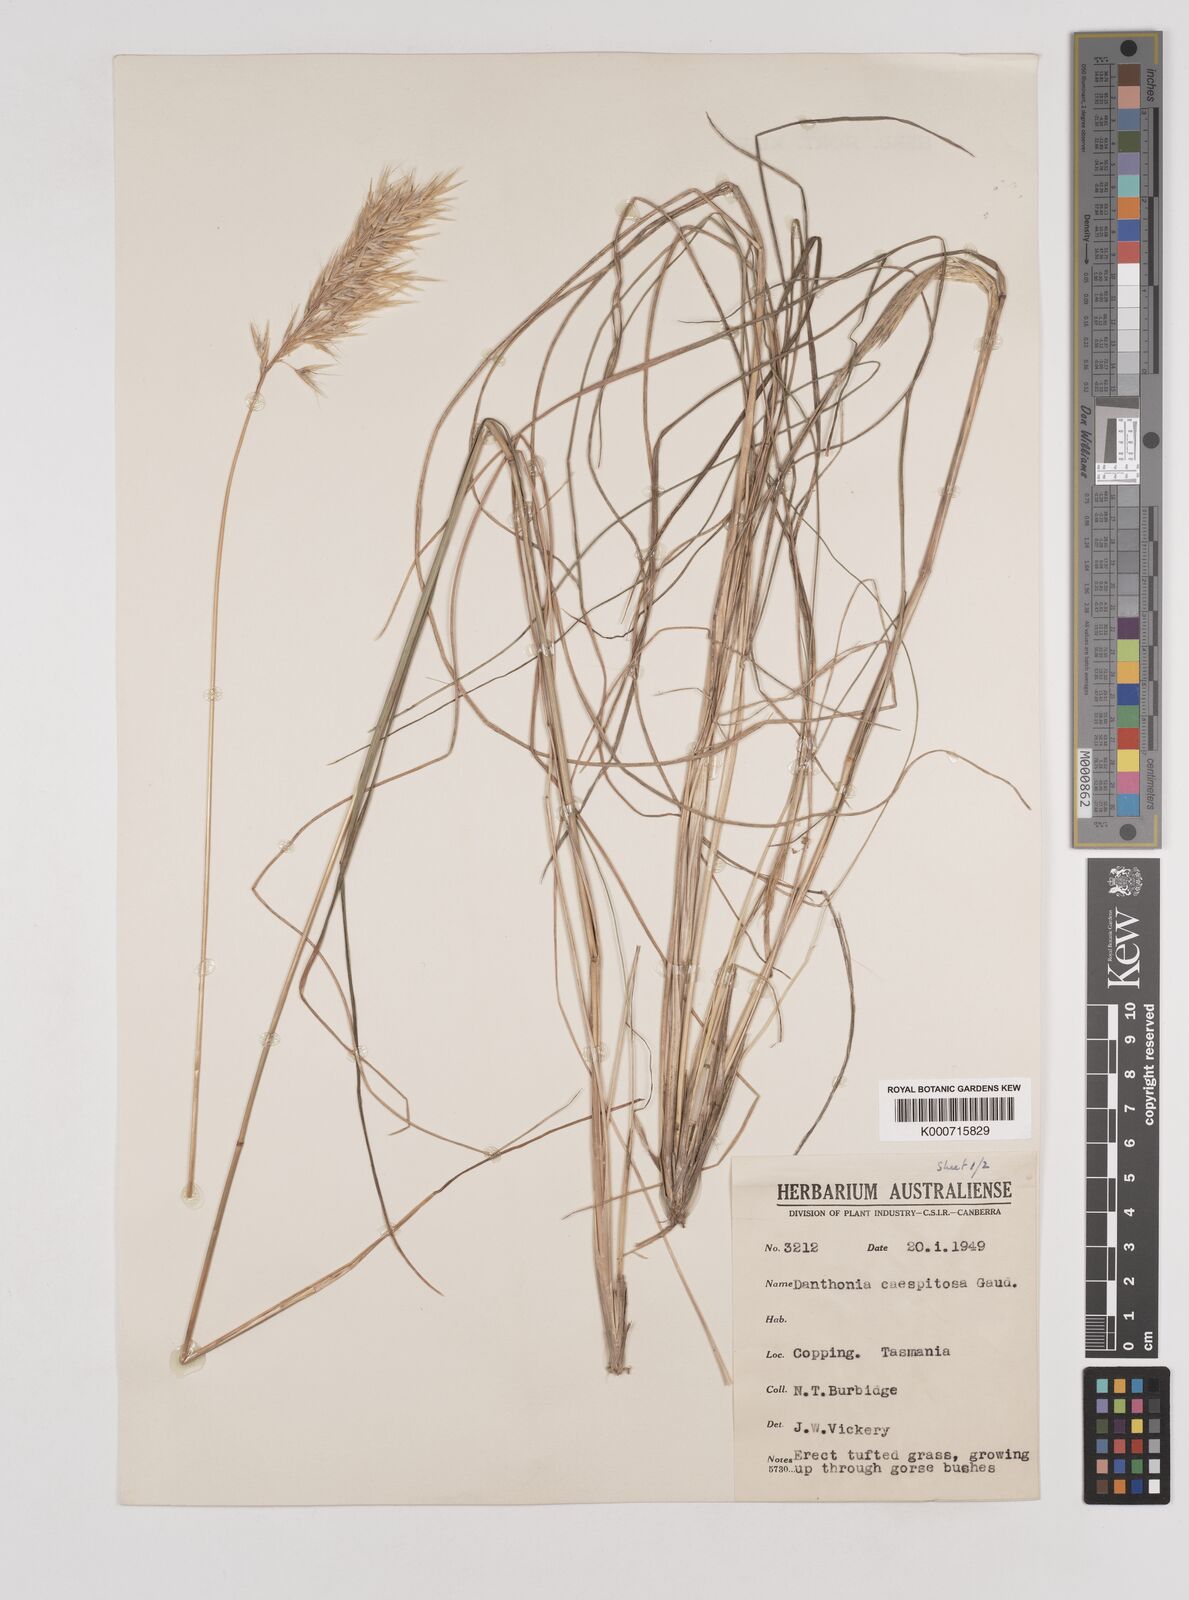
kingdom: Plantae
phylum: Tracheophyta
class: Liliopsida
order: Poales
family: Poaceae
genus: Rytidosperma
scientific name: Rytidosperma caespitosum
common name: Tufted wallaby grass
